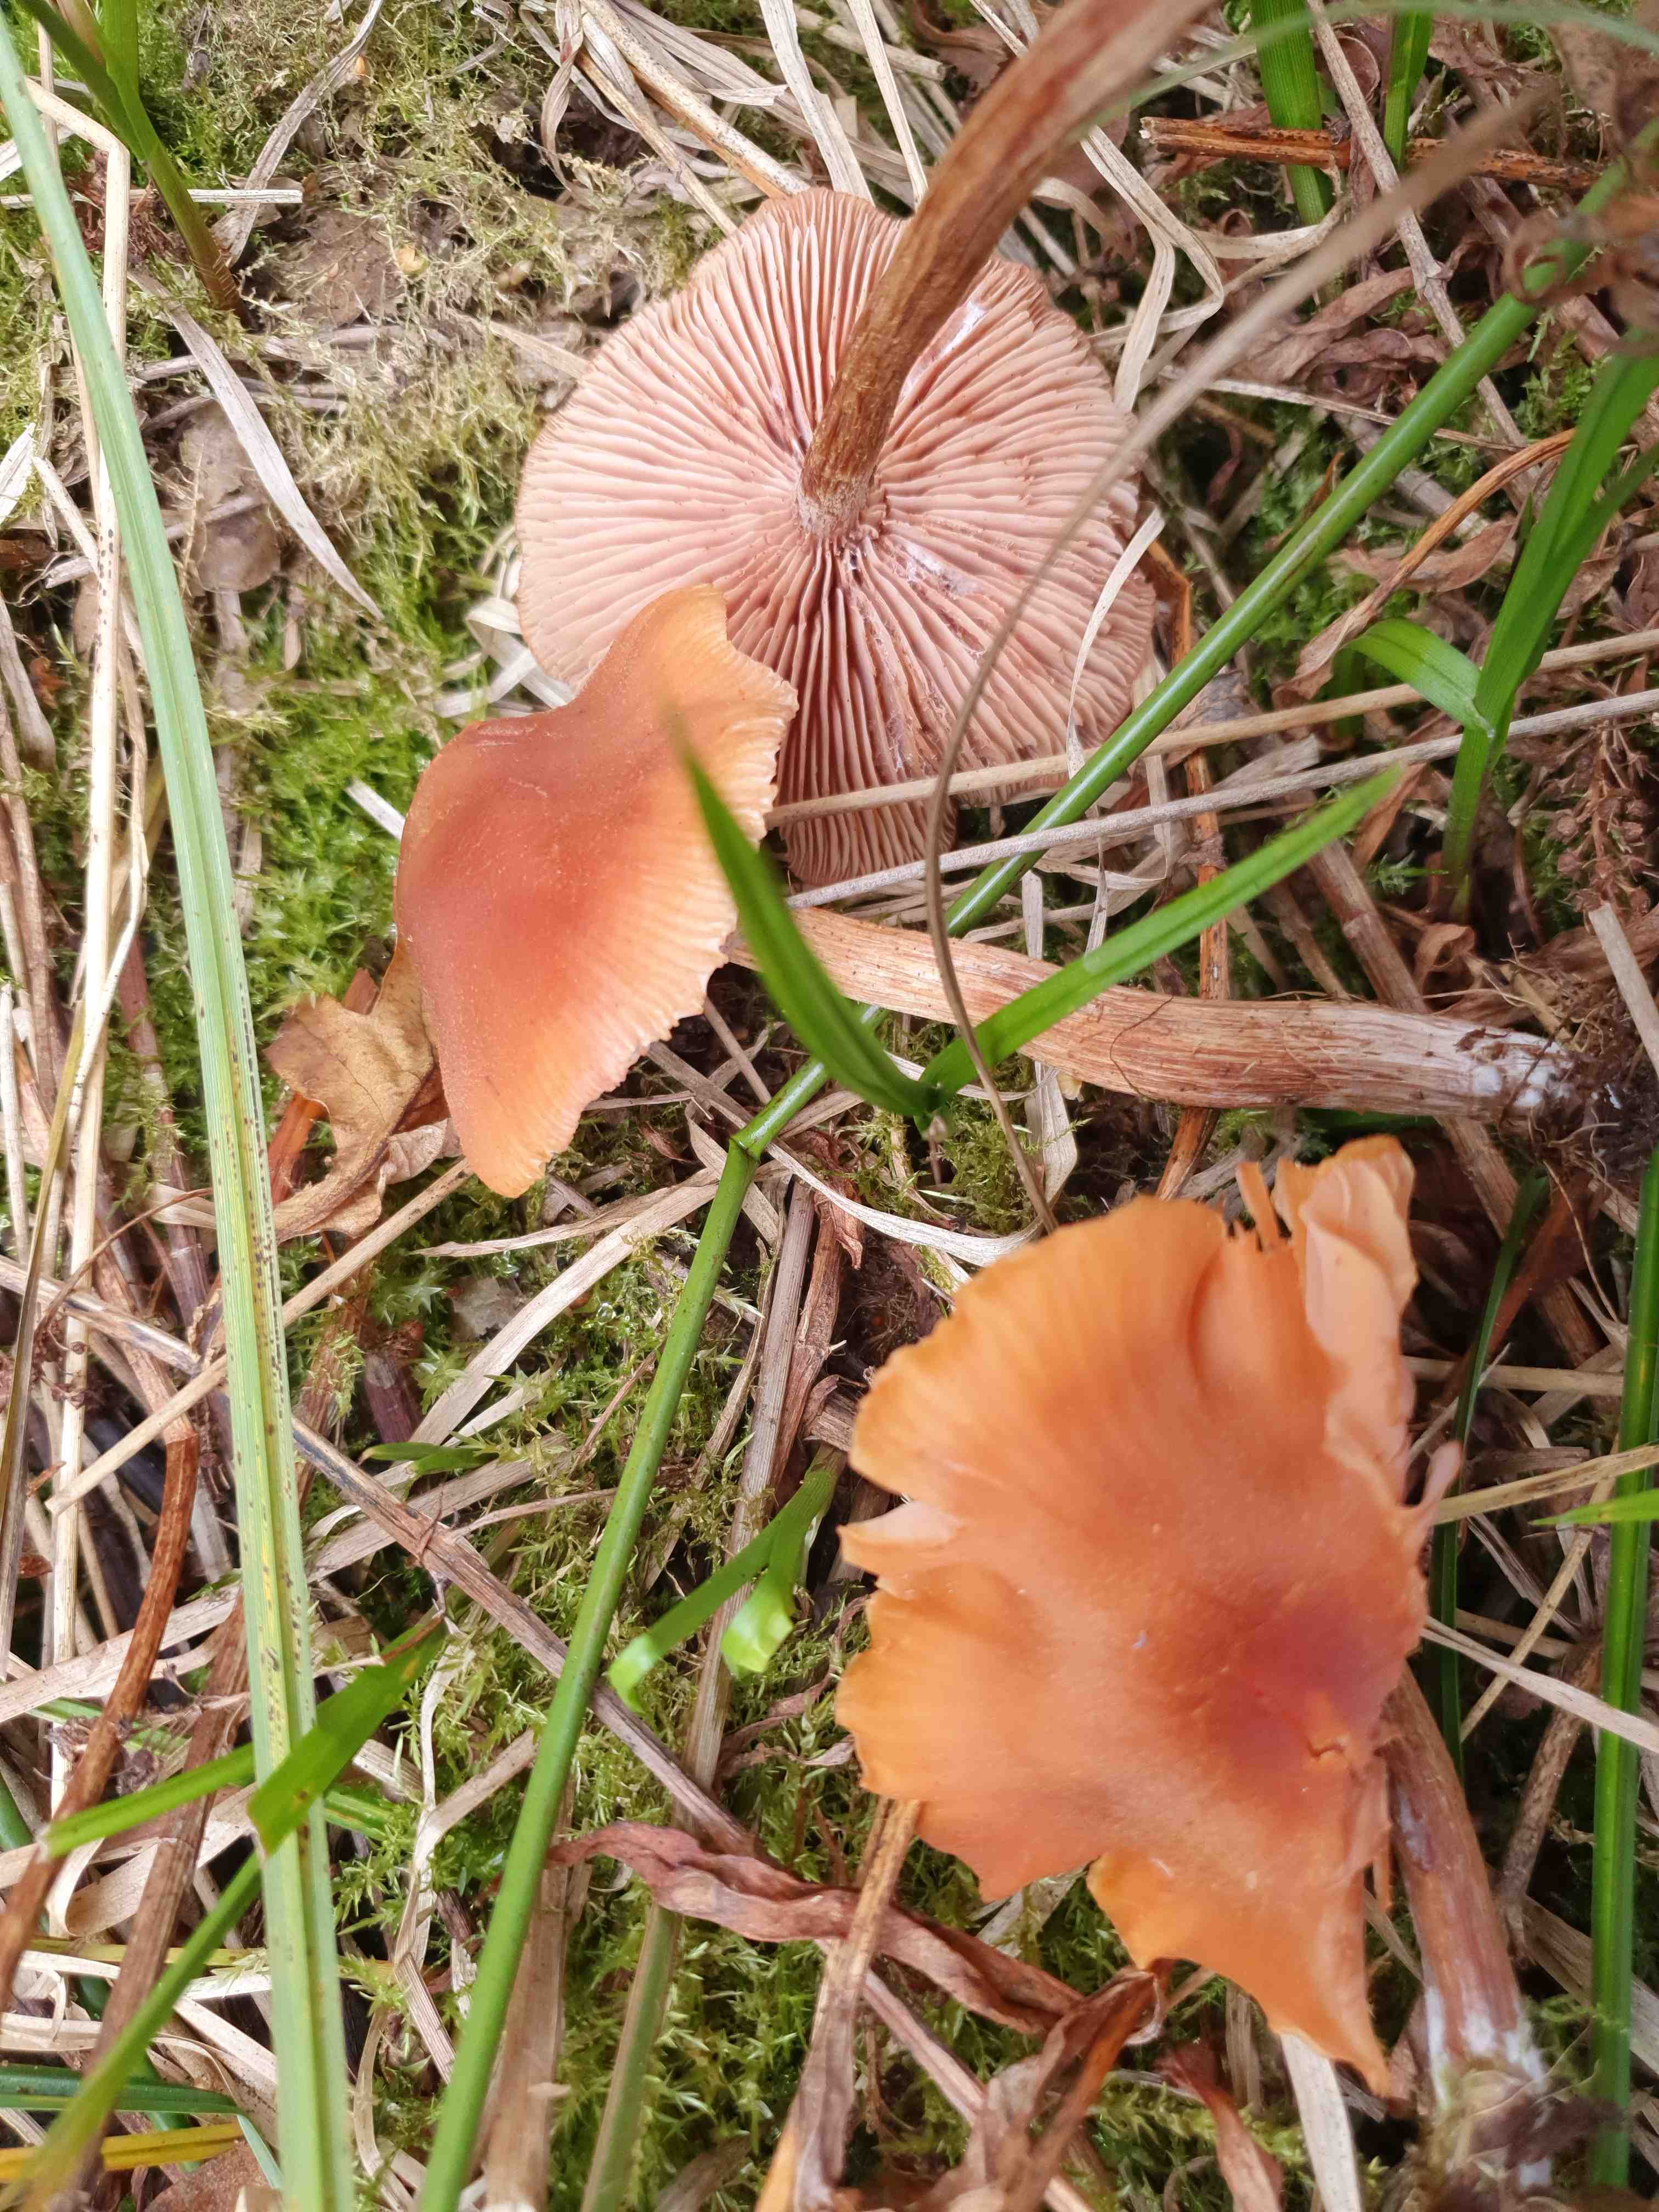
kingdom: Fungi
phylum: Basidiomycota
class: Agaricomycetes
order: Agaricales
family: Hydnangiaceae
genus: Laccaria
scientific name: Laccaria proxima
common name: stor ametysthat
